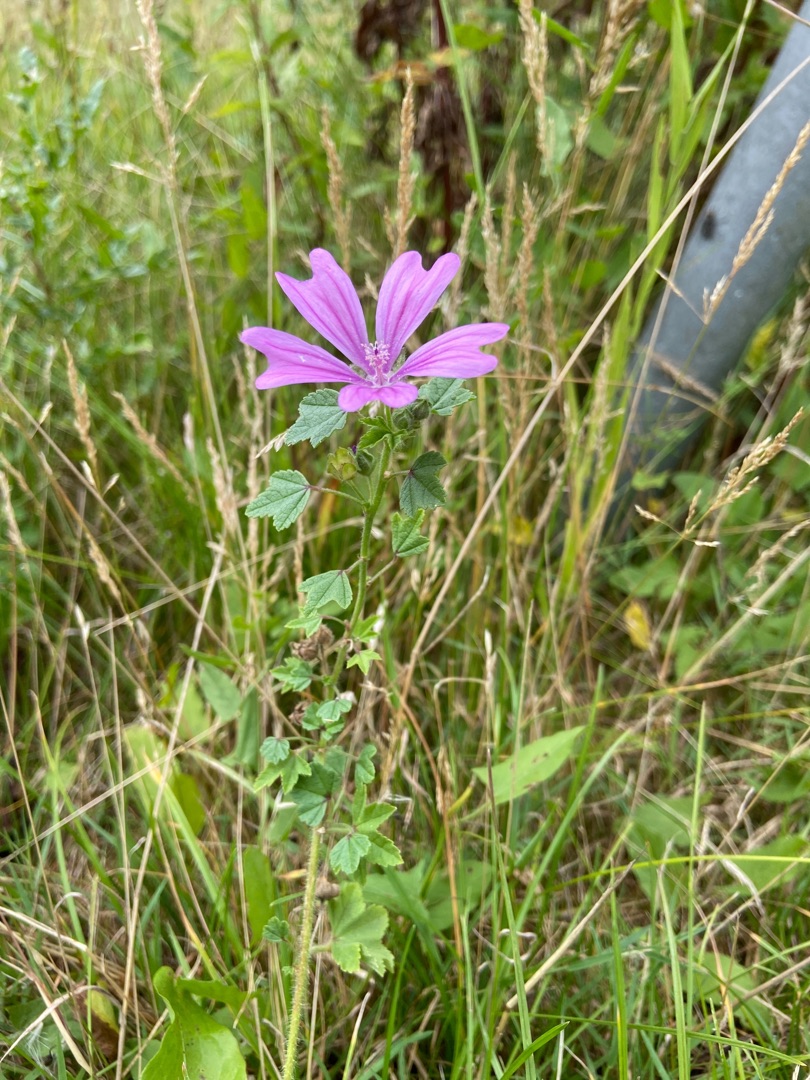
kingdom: Plantae
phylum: Tracheophyta
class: Magnoliopsida
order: Malvales
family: Malvaceae
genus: Malva
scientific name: Malva sylvestris
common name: Almindelig katost
